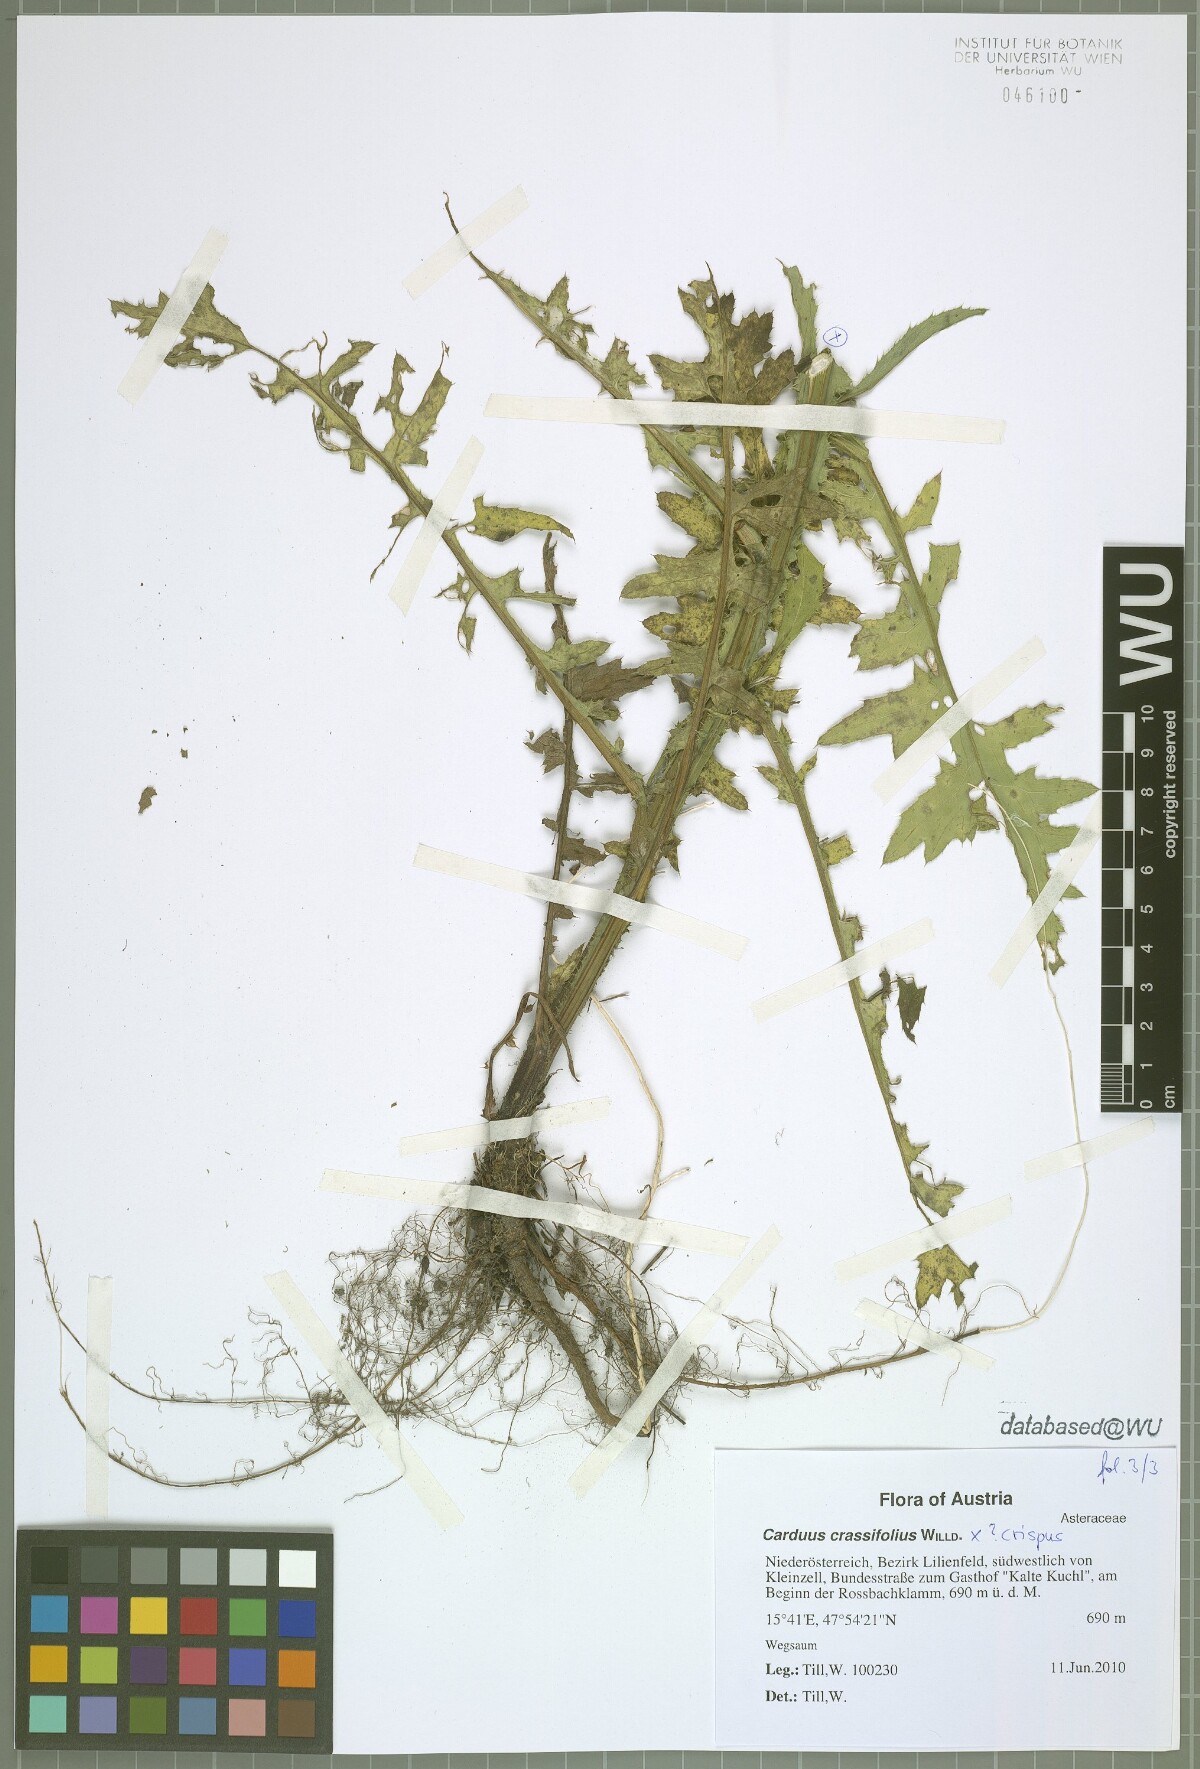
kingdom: Plantae
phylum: Tracheophyta
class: Magnoliopsida
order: Asterales
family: Asteraceae
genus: Carduus
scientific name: Carduus defloratus
